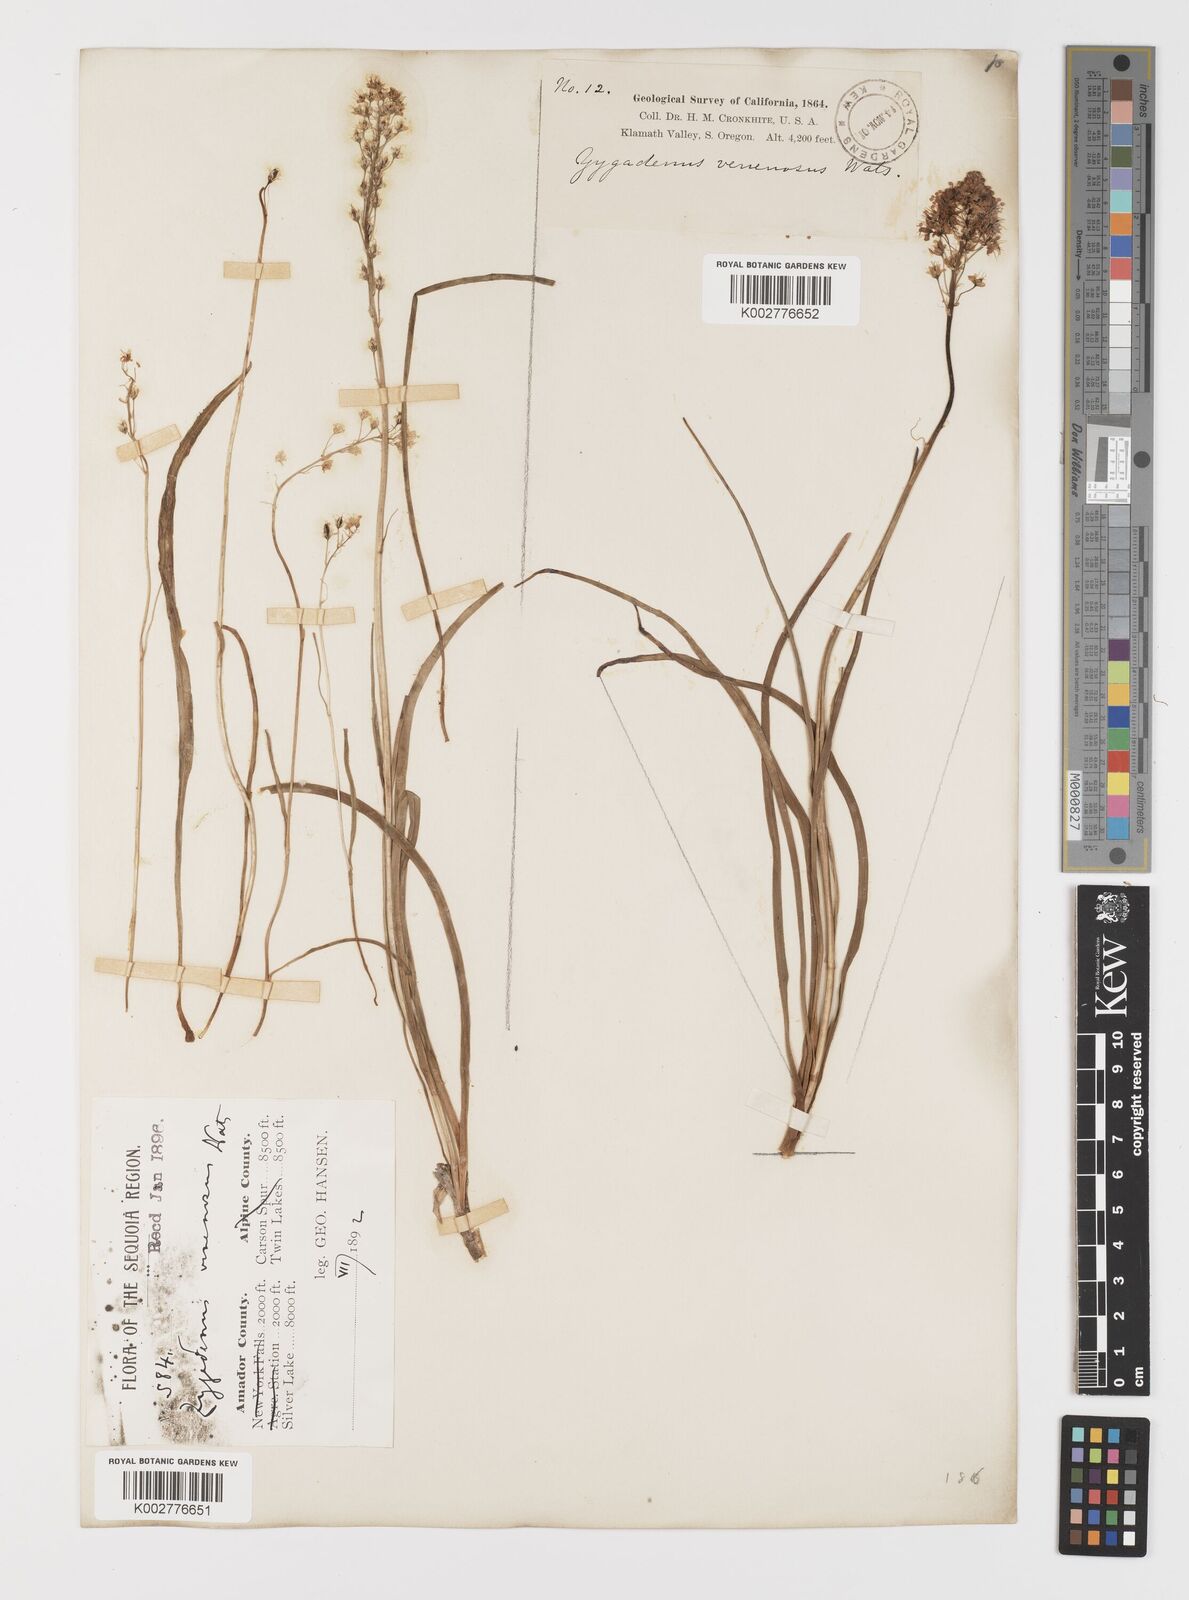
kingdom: Plantae
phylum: Tracheophyta
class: Liliopsida
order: Liliales
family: Melanthiaceae
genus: Toxicoscordion
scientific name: Toxicoscordion venenosum
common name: Meadow death camas
